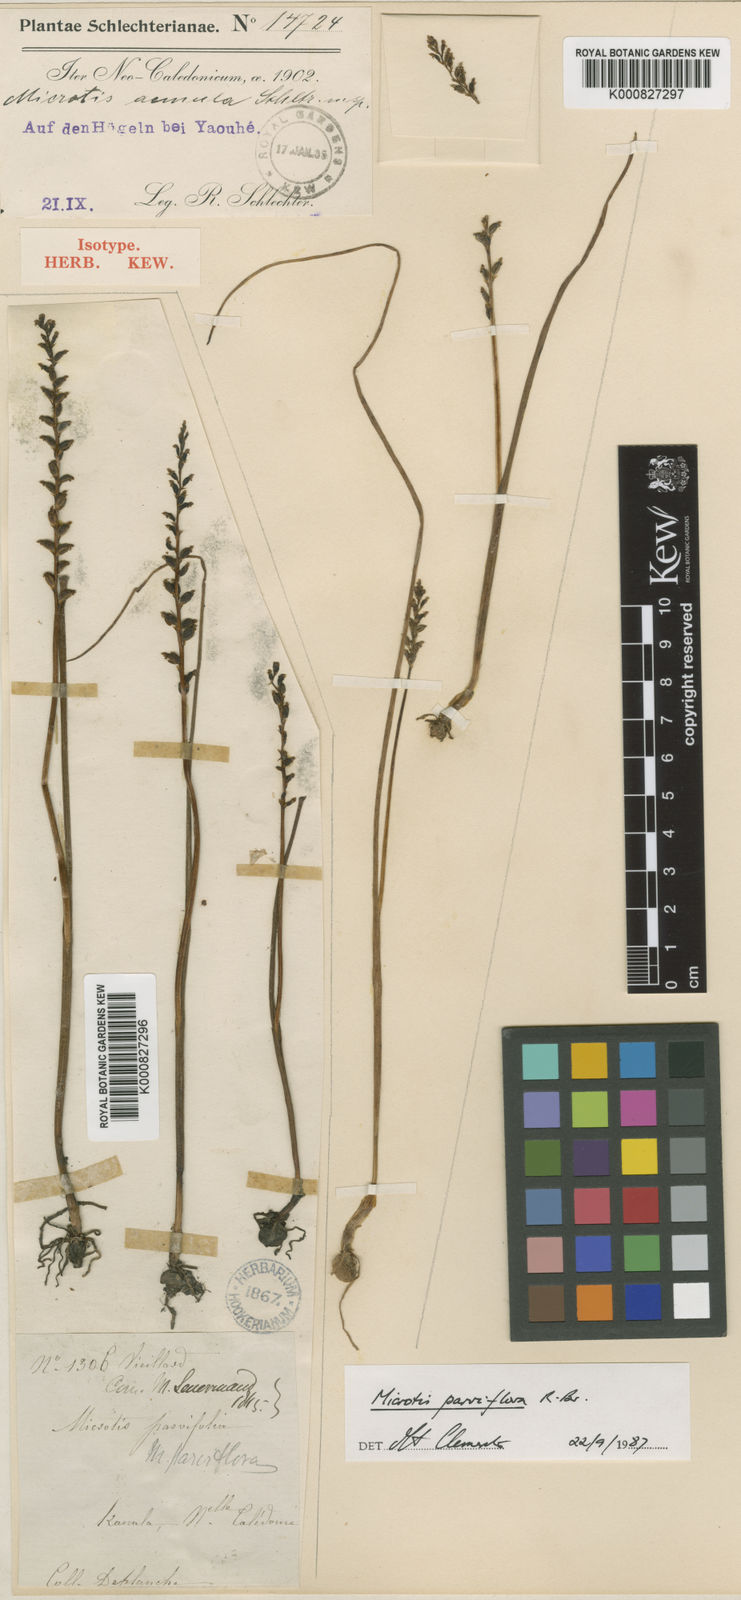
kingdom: Plantae
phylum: Tracheophyta
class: Liliopsida
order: Asparagales
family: Orchidaceae
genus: Microtis
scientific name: Microtis unifolia
